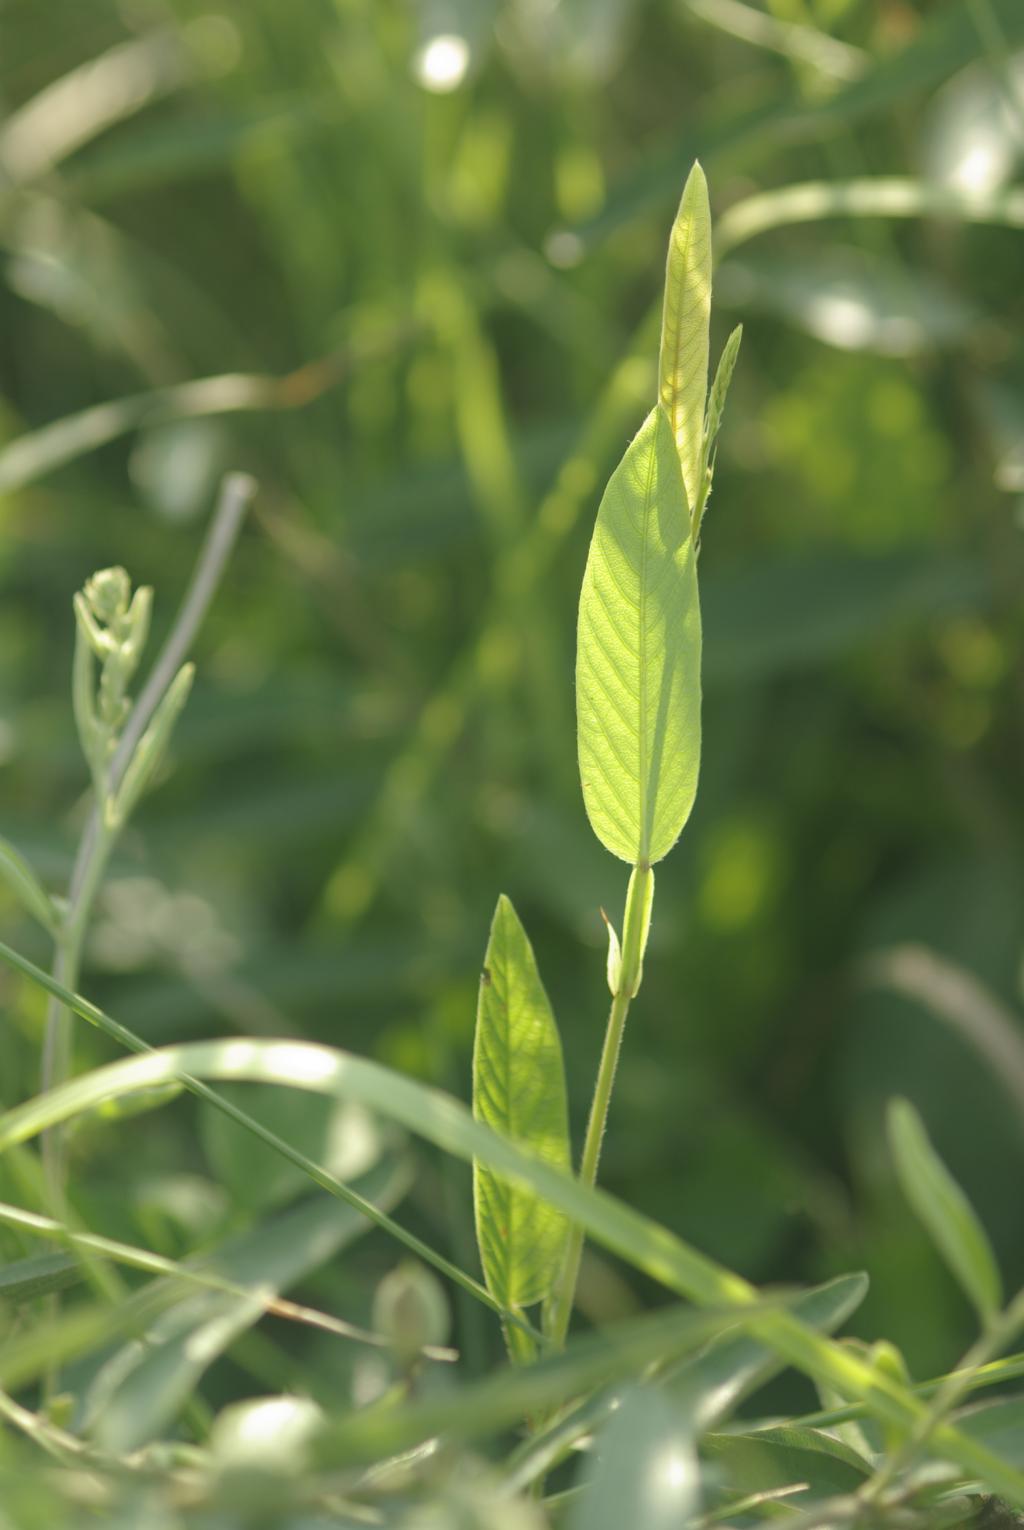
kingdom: Plantae
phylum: Tracheophyta
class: Magnoliopsida
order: Fabales
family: Fabaceae
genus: Tadehagi
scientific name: Tadehagi pseudotriquetrum
